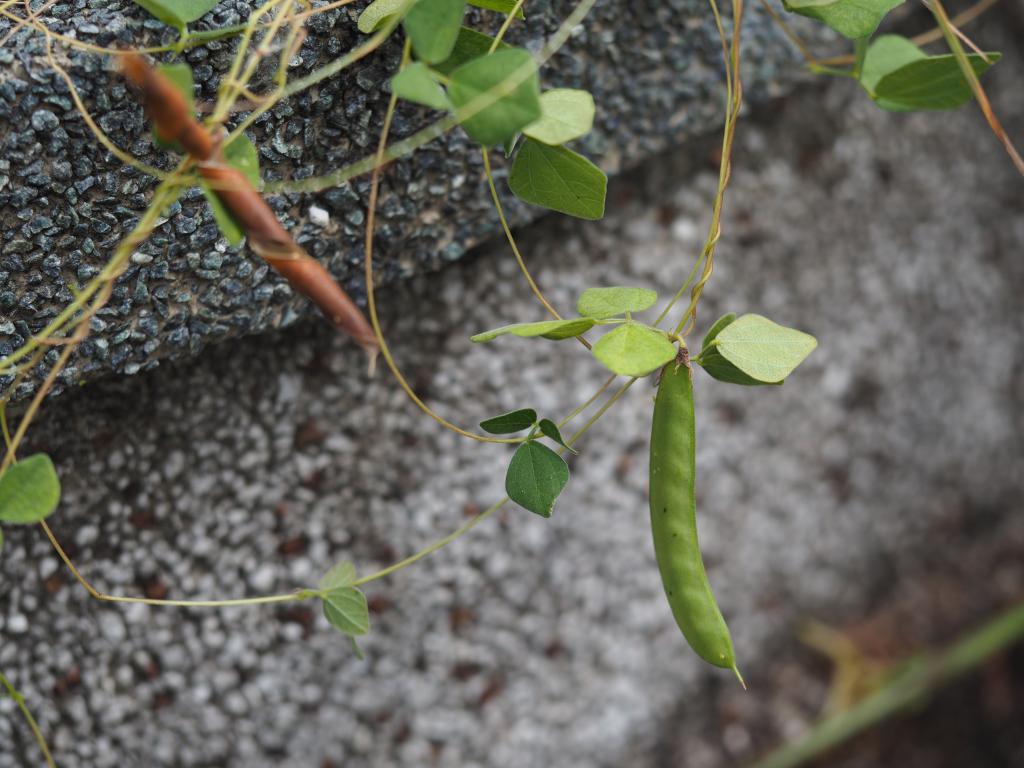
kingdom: Plantae
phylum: Tracheophyta
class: Magnoliopsida
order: Fabales
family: Fabaceae
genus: Dunbaria
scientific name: Dunbaria punctata
